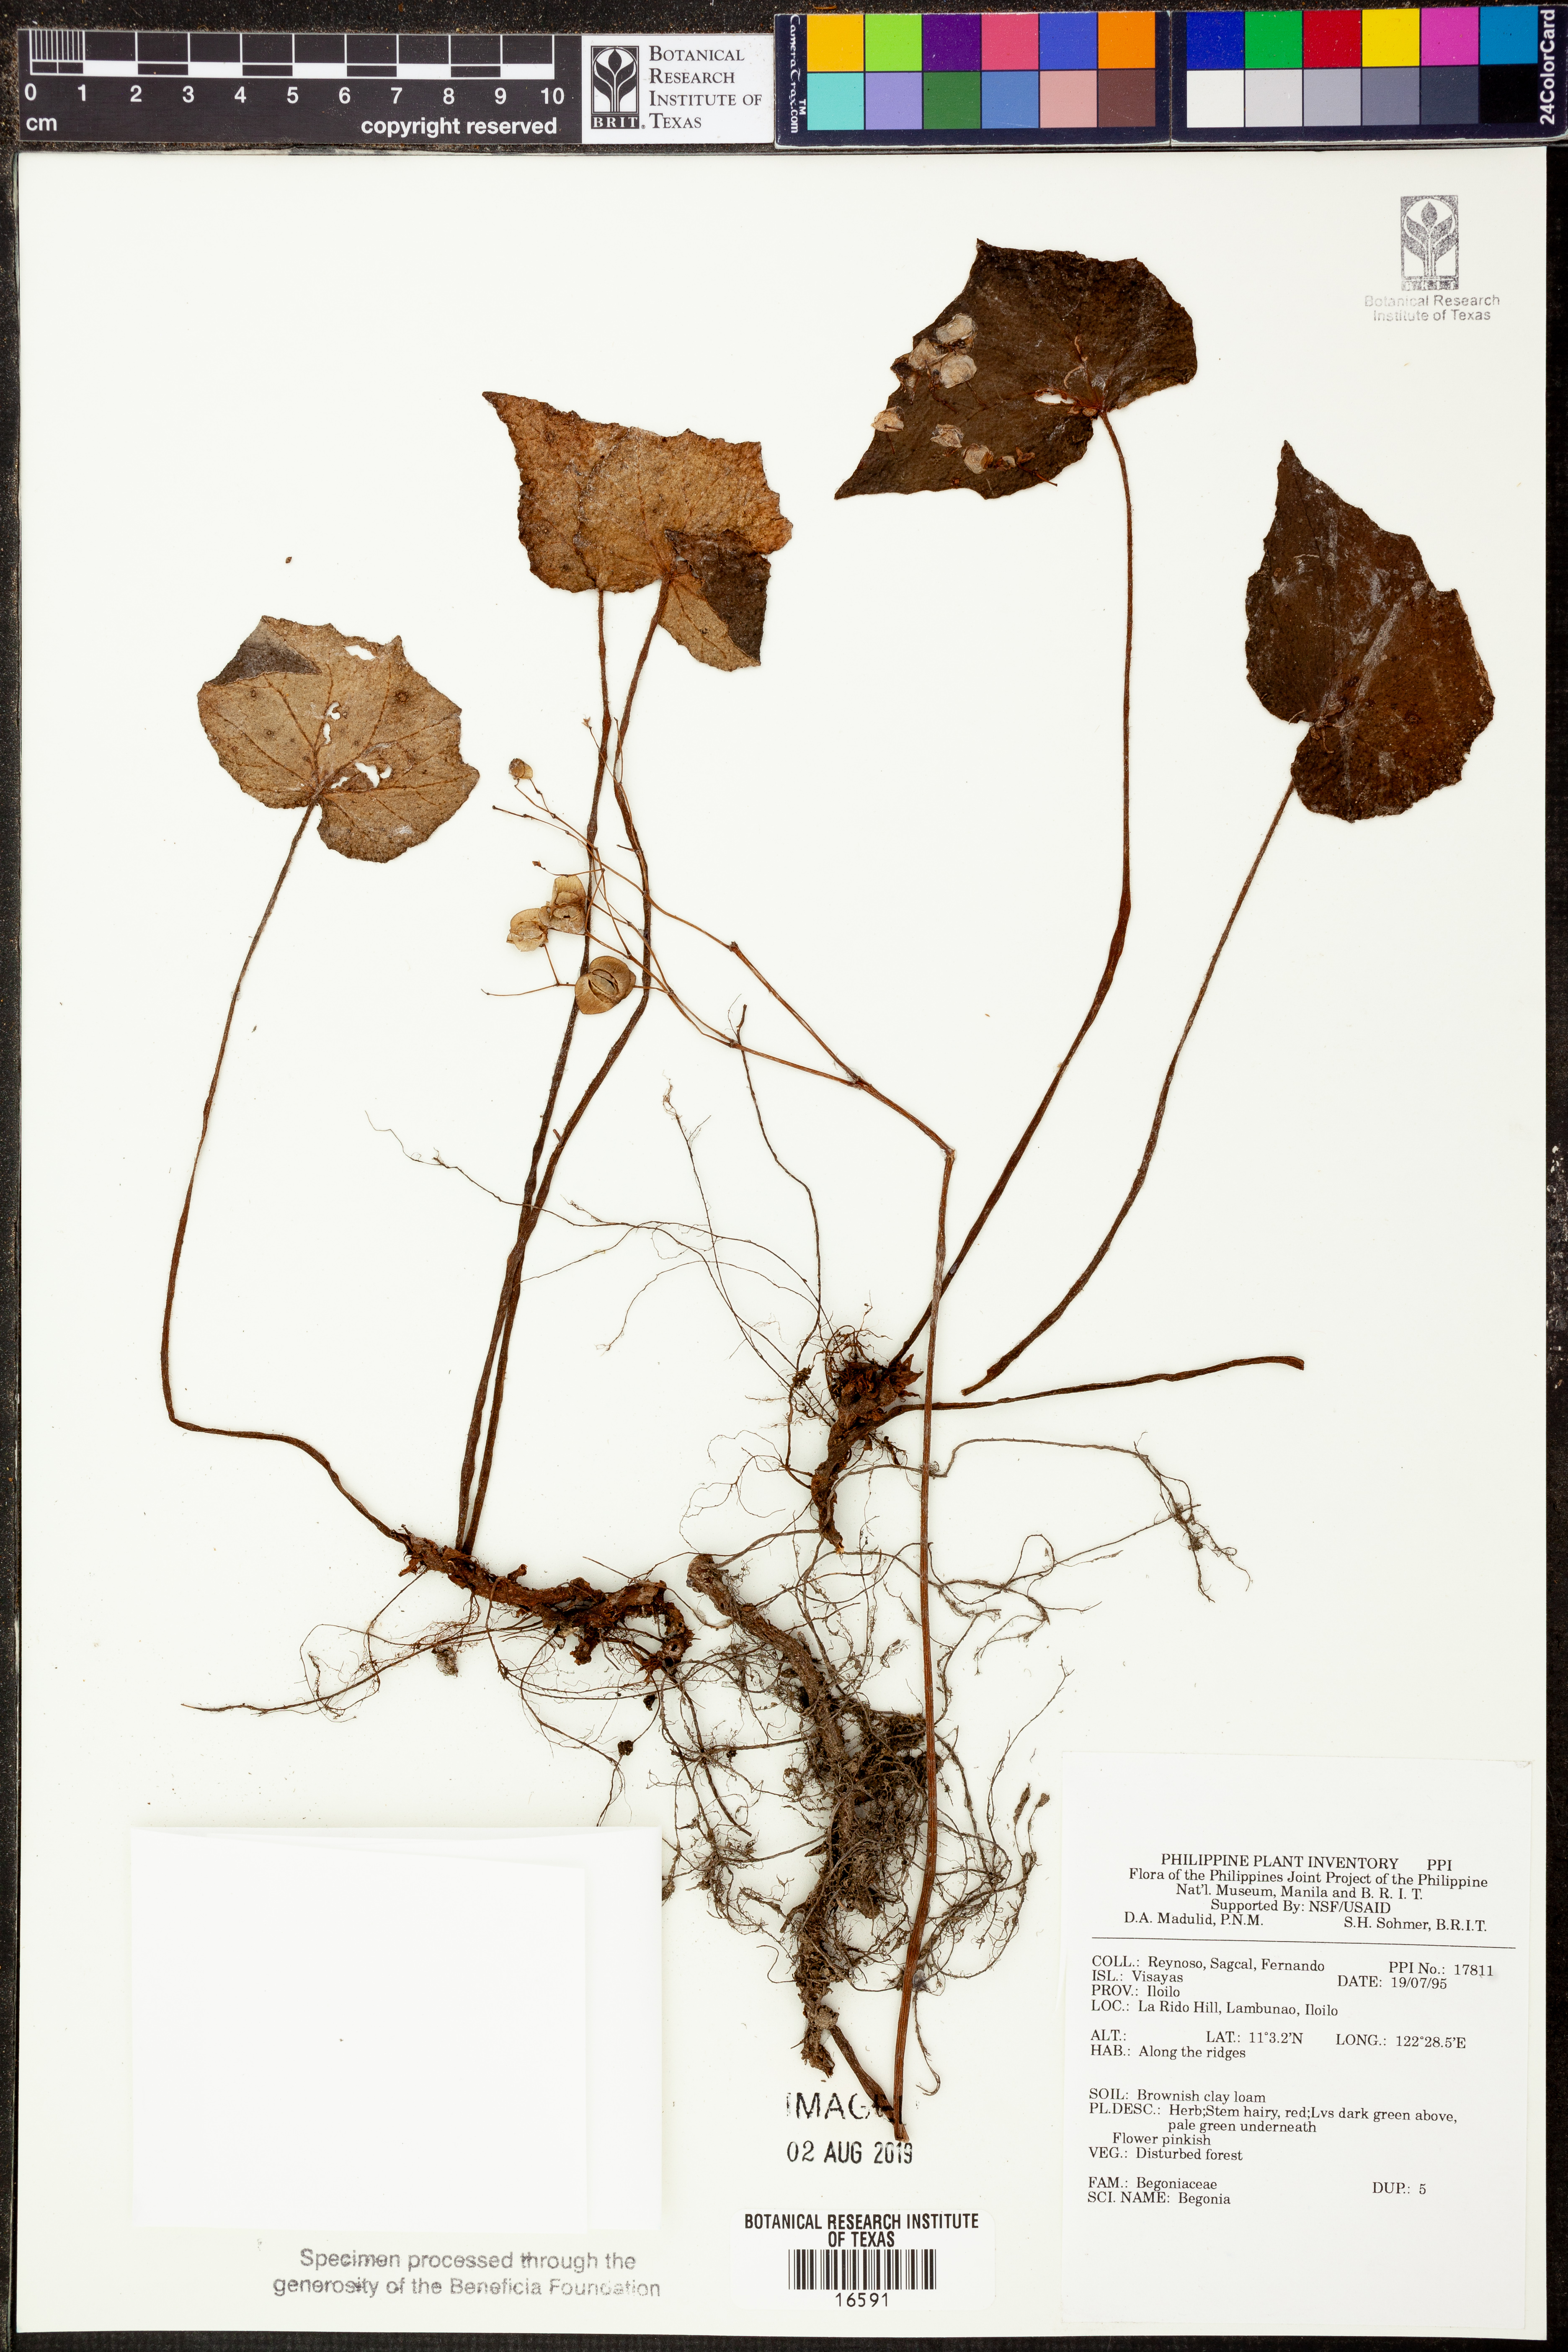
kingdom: Plantae
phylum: Tracheophyta
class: Magnoliopsida
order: Cucurbitales
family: Begoniaceae
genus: Begonia
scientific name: Begonia
